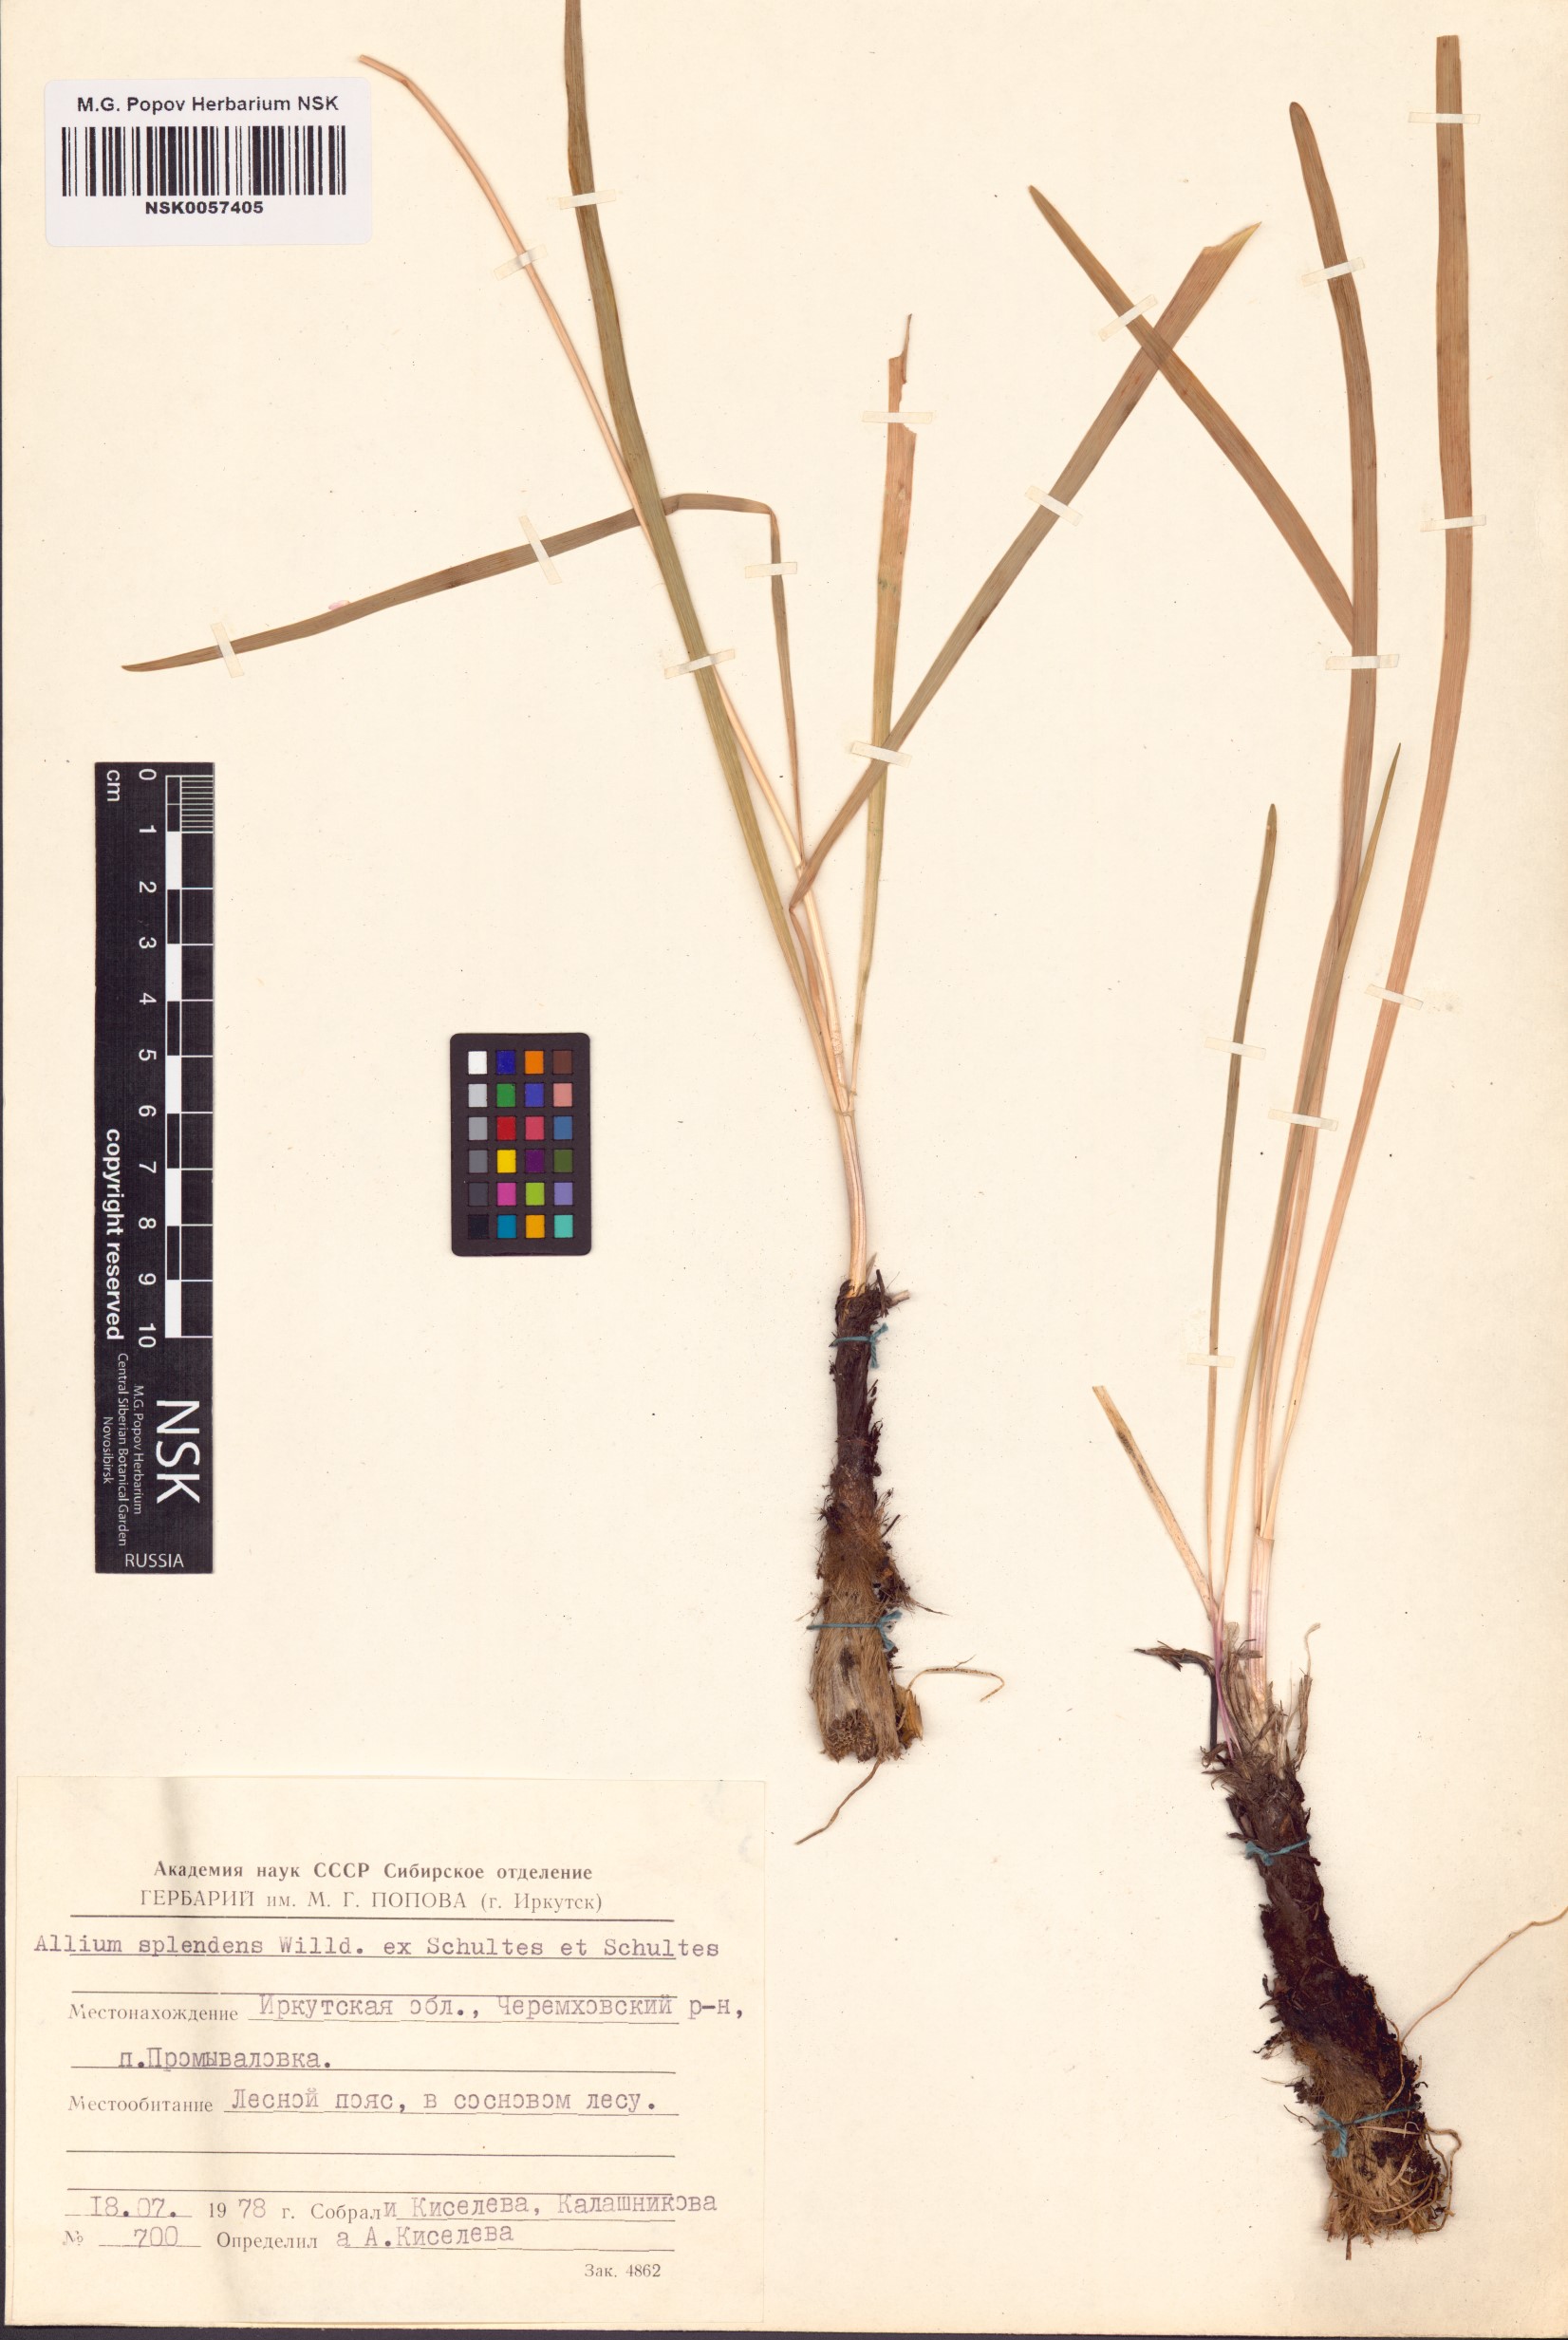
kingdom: Plantae
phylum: Tracheophyta
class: Liliopsida
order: Asparagales
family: Amaryllidaceae
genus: Allium
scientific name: Allium splendens
